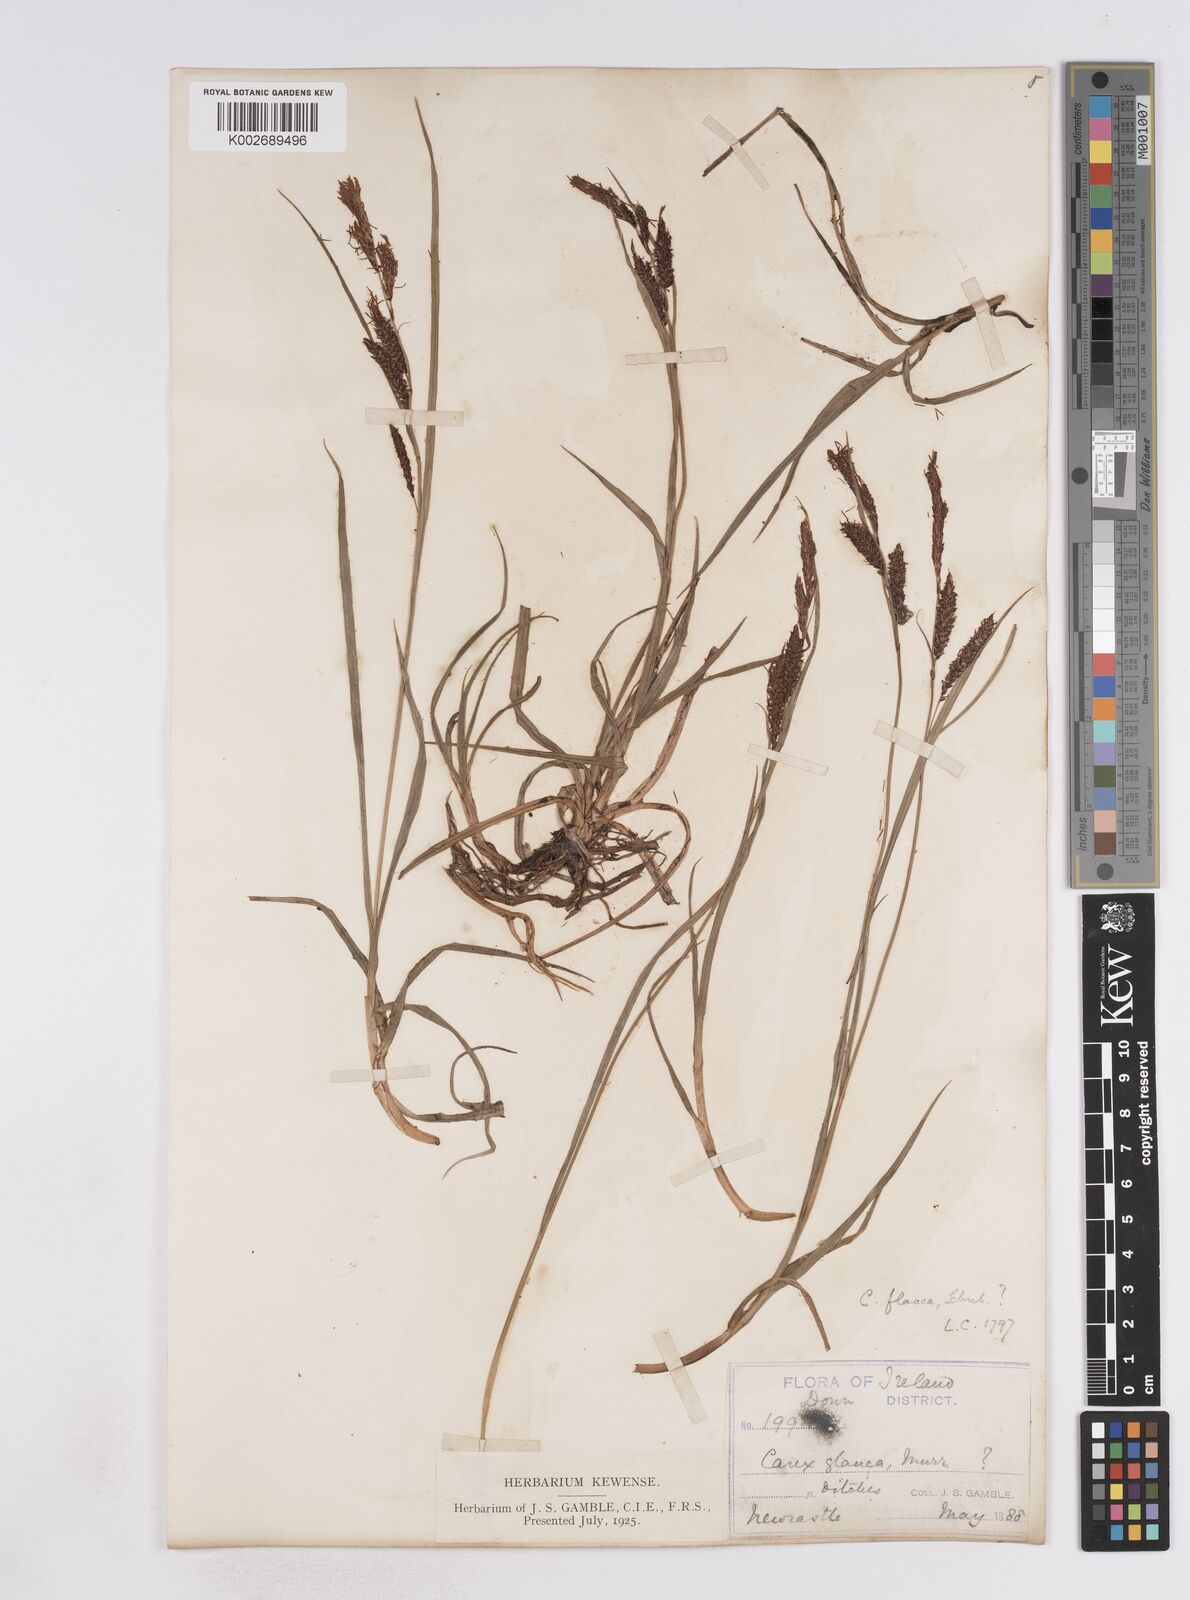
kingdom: Plantae
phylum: Tracheophyta
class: Liliopsida
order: Poales
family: Cyperaceae
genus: Carex
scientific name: Carex flacca
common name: Glaucous sedge
